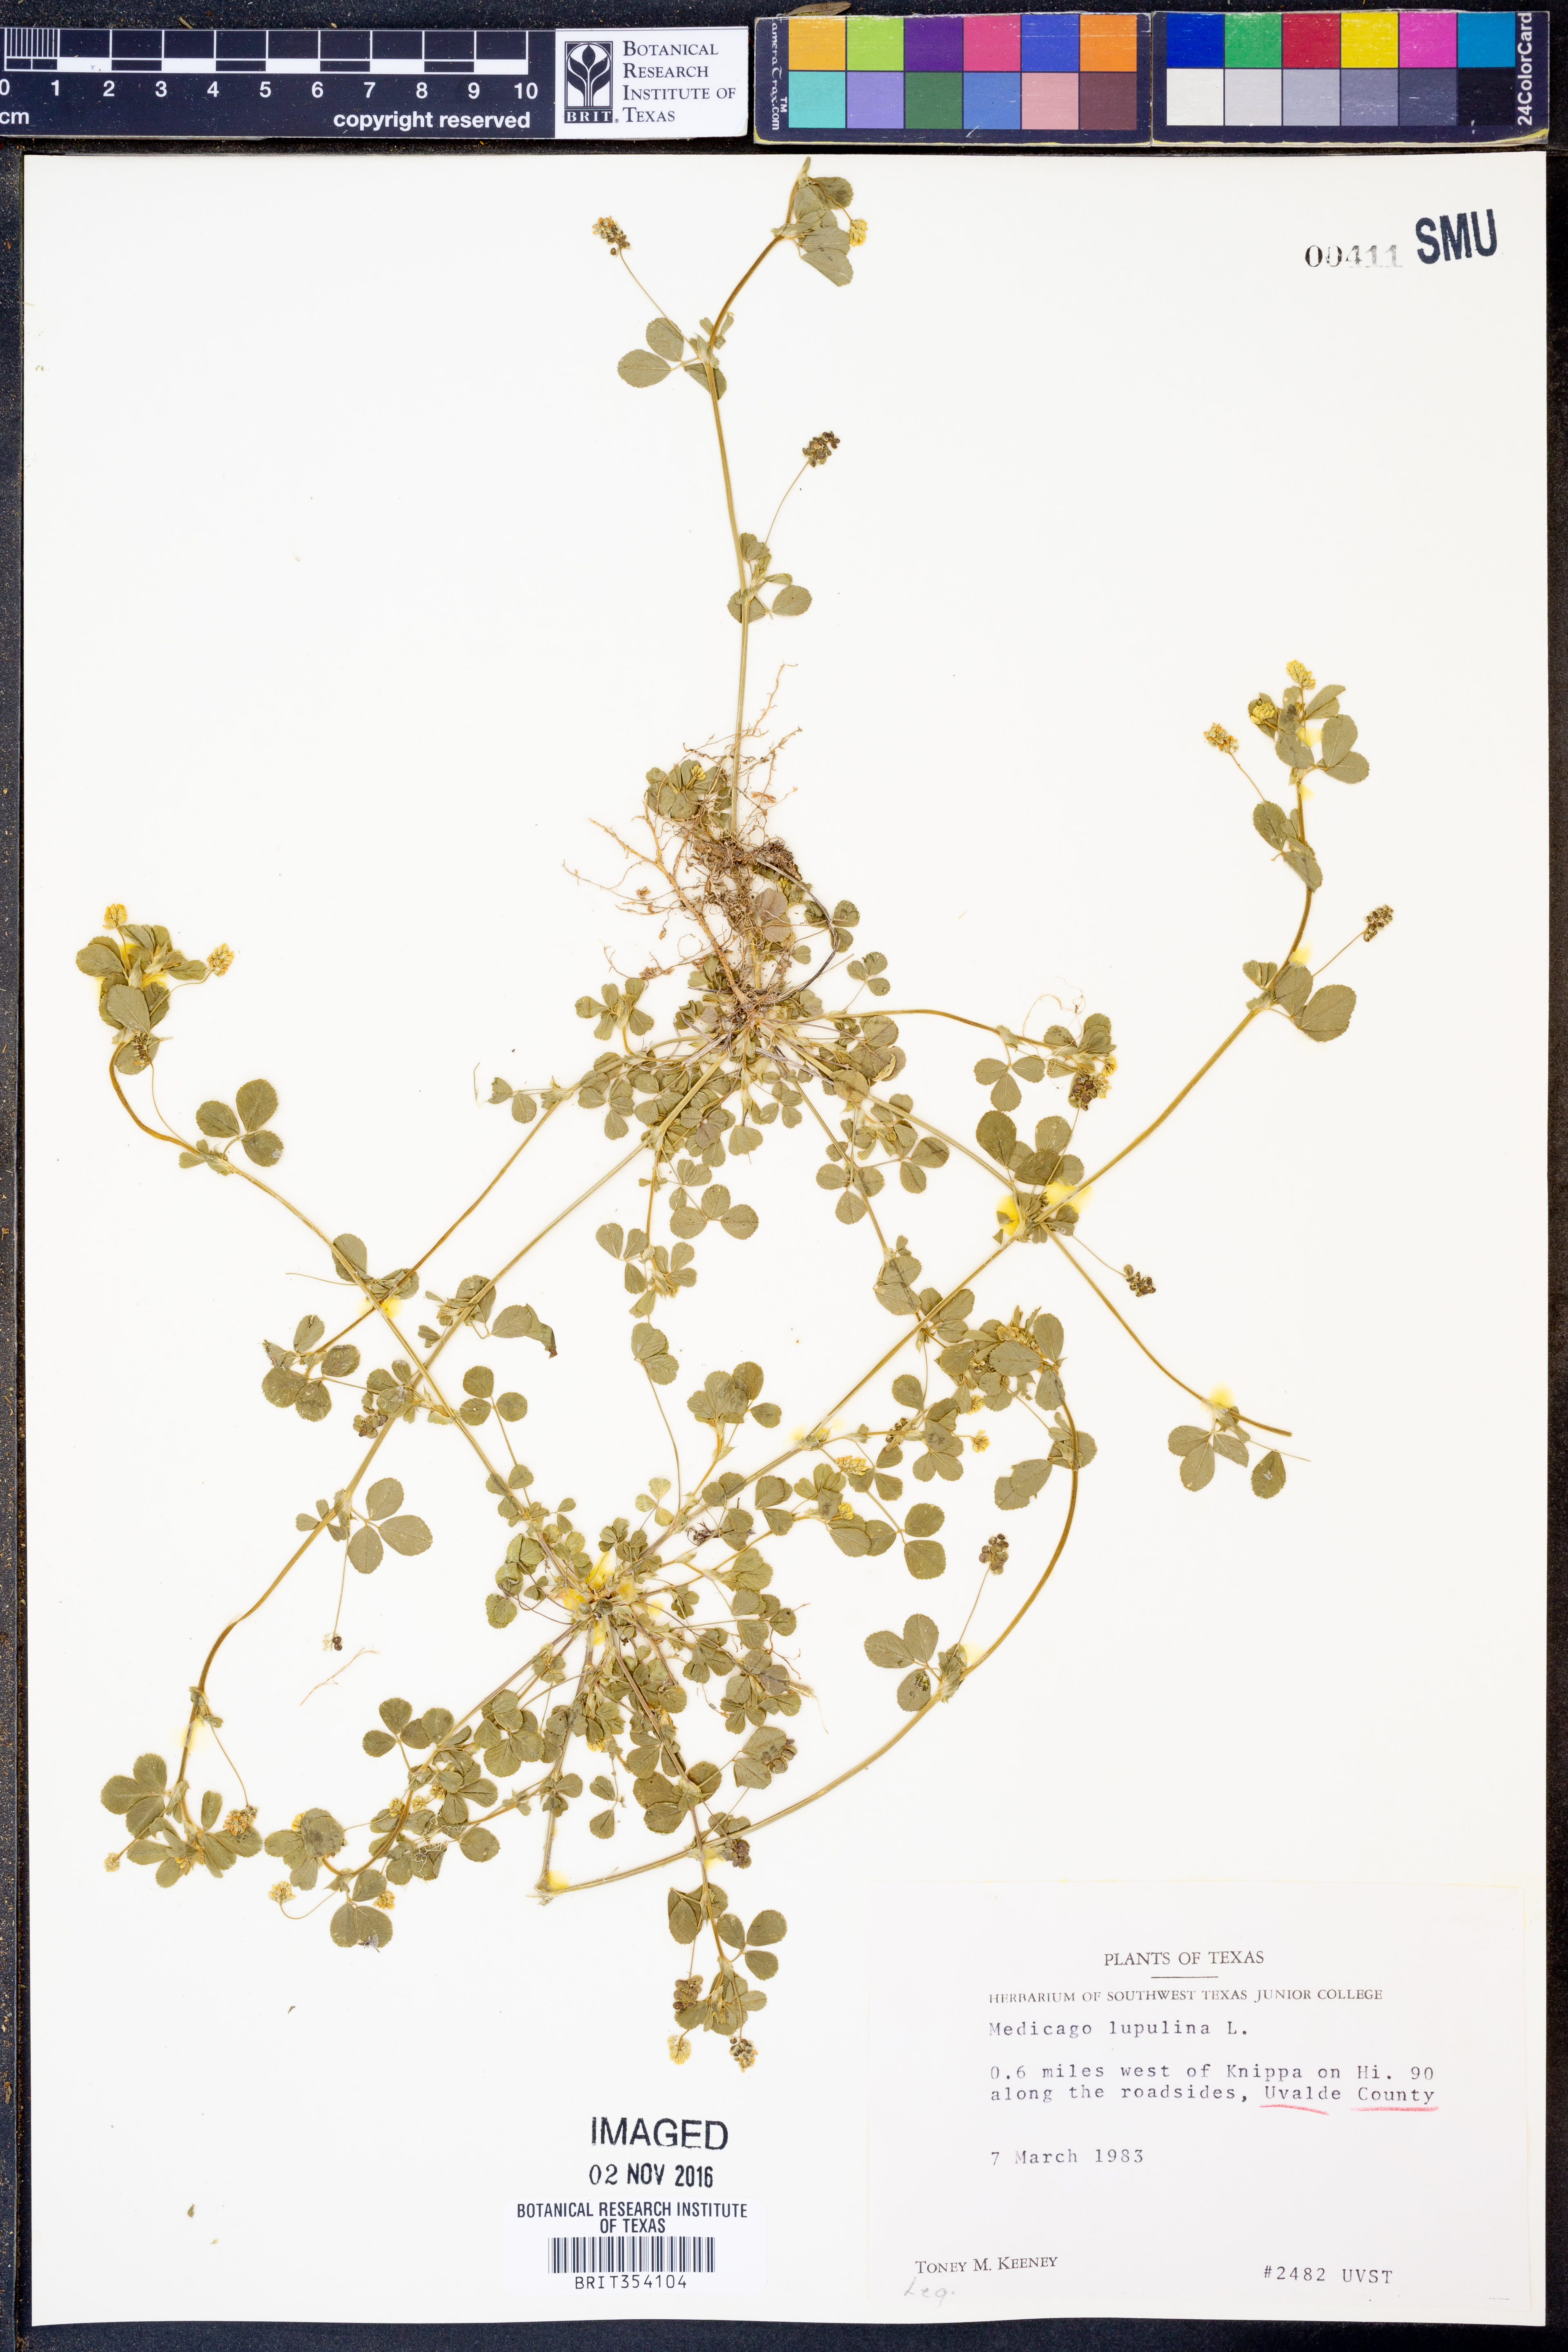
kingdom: Plantae
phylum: Tracheophyta
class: Magnoliopsida
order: Fabales
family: Fabaceae
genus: Medicago
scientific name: Medicago lupulina
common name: Black medick
